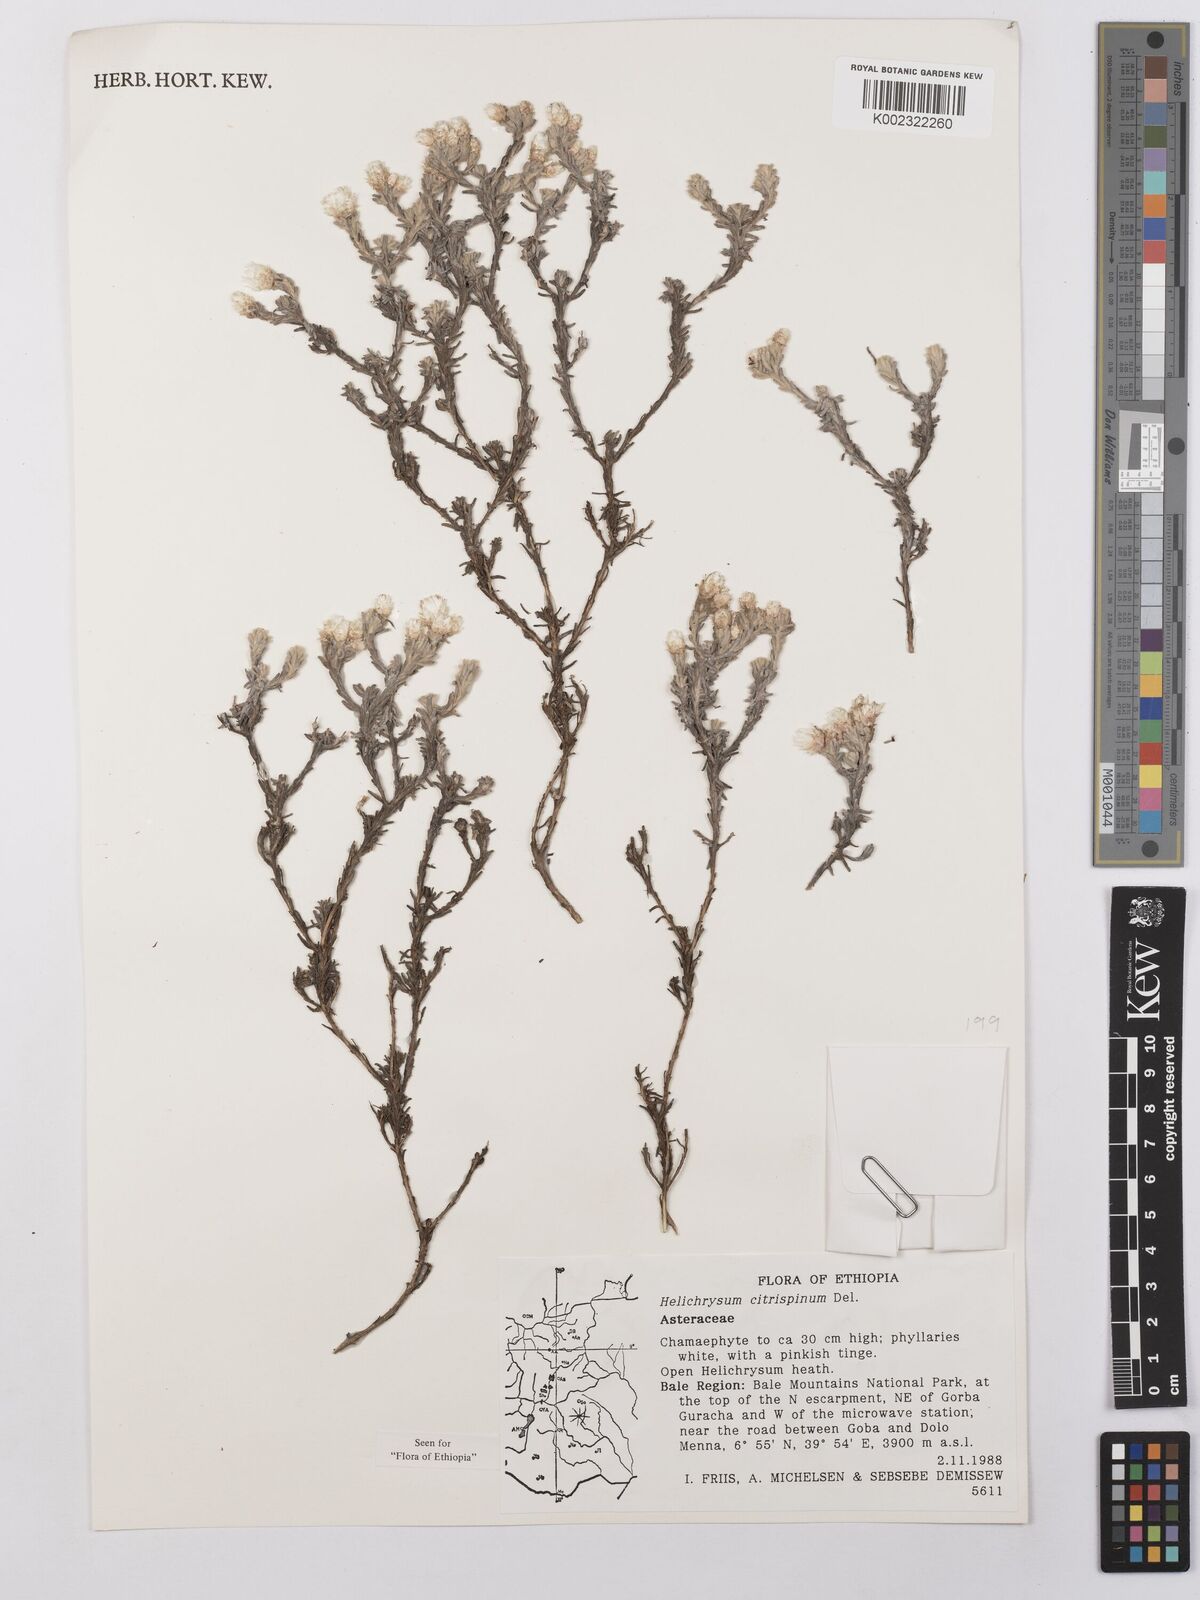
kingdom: Plantae
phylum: Tracheophyta
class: Magnoliopsida
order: Asterales
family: Asteraceae
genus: Helichrysum
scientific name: Helichrysum citrispinum
